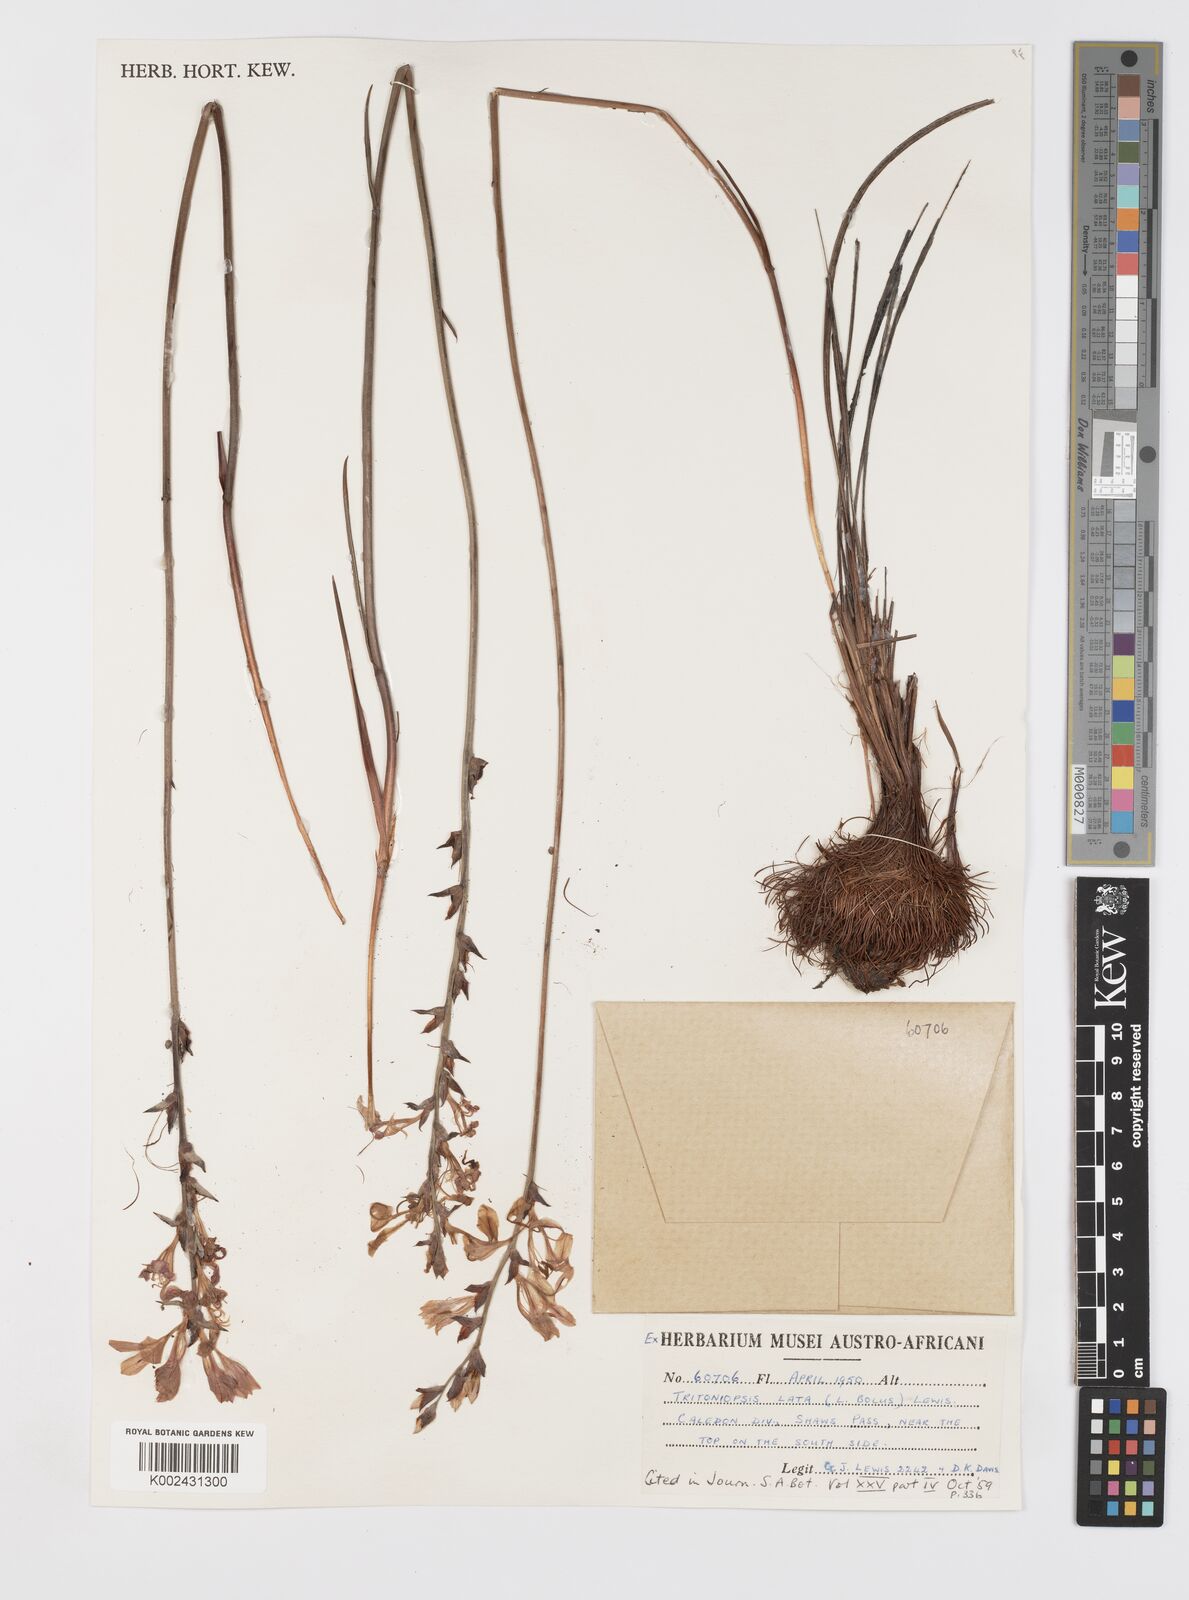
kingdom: Plantae
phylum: Tracheophyta
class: Liliopsida
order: Asparagales
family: Iridaceae
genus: Tritoniopsis
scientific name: Tritoniopsis lata
